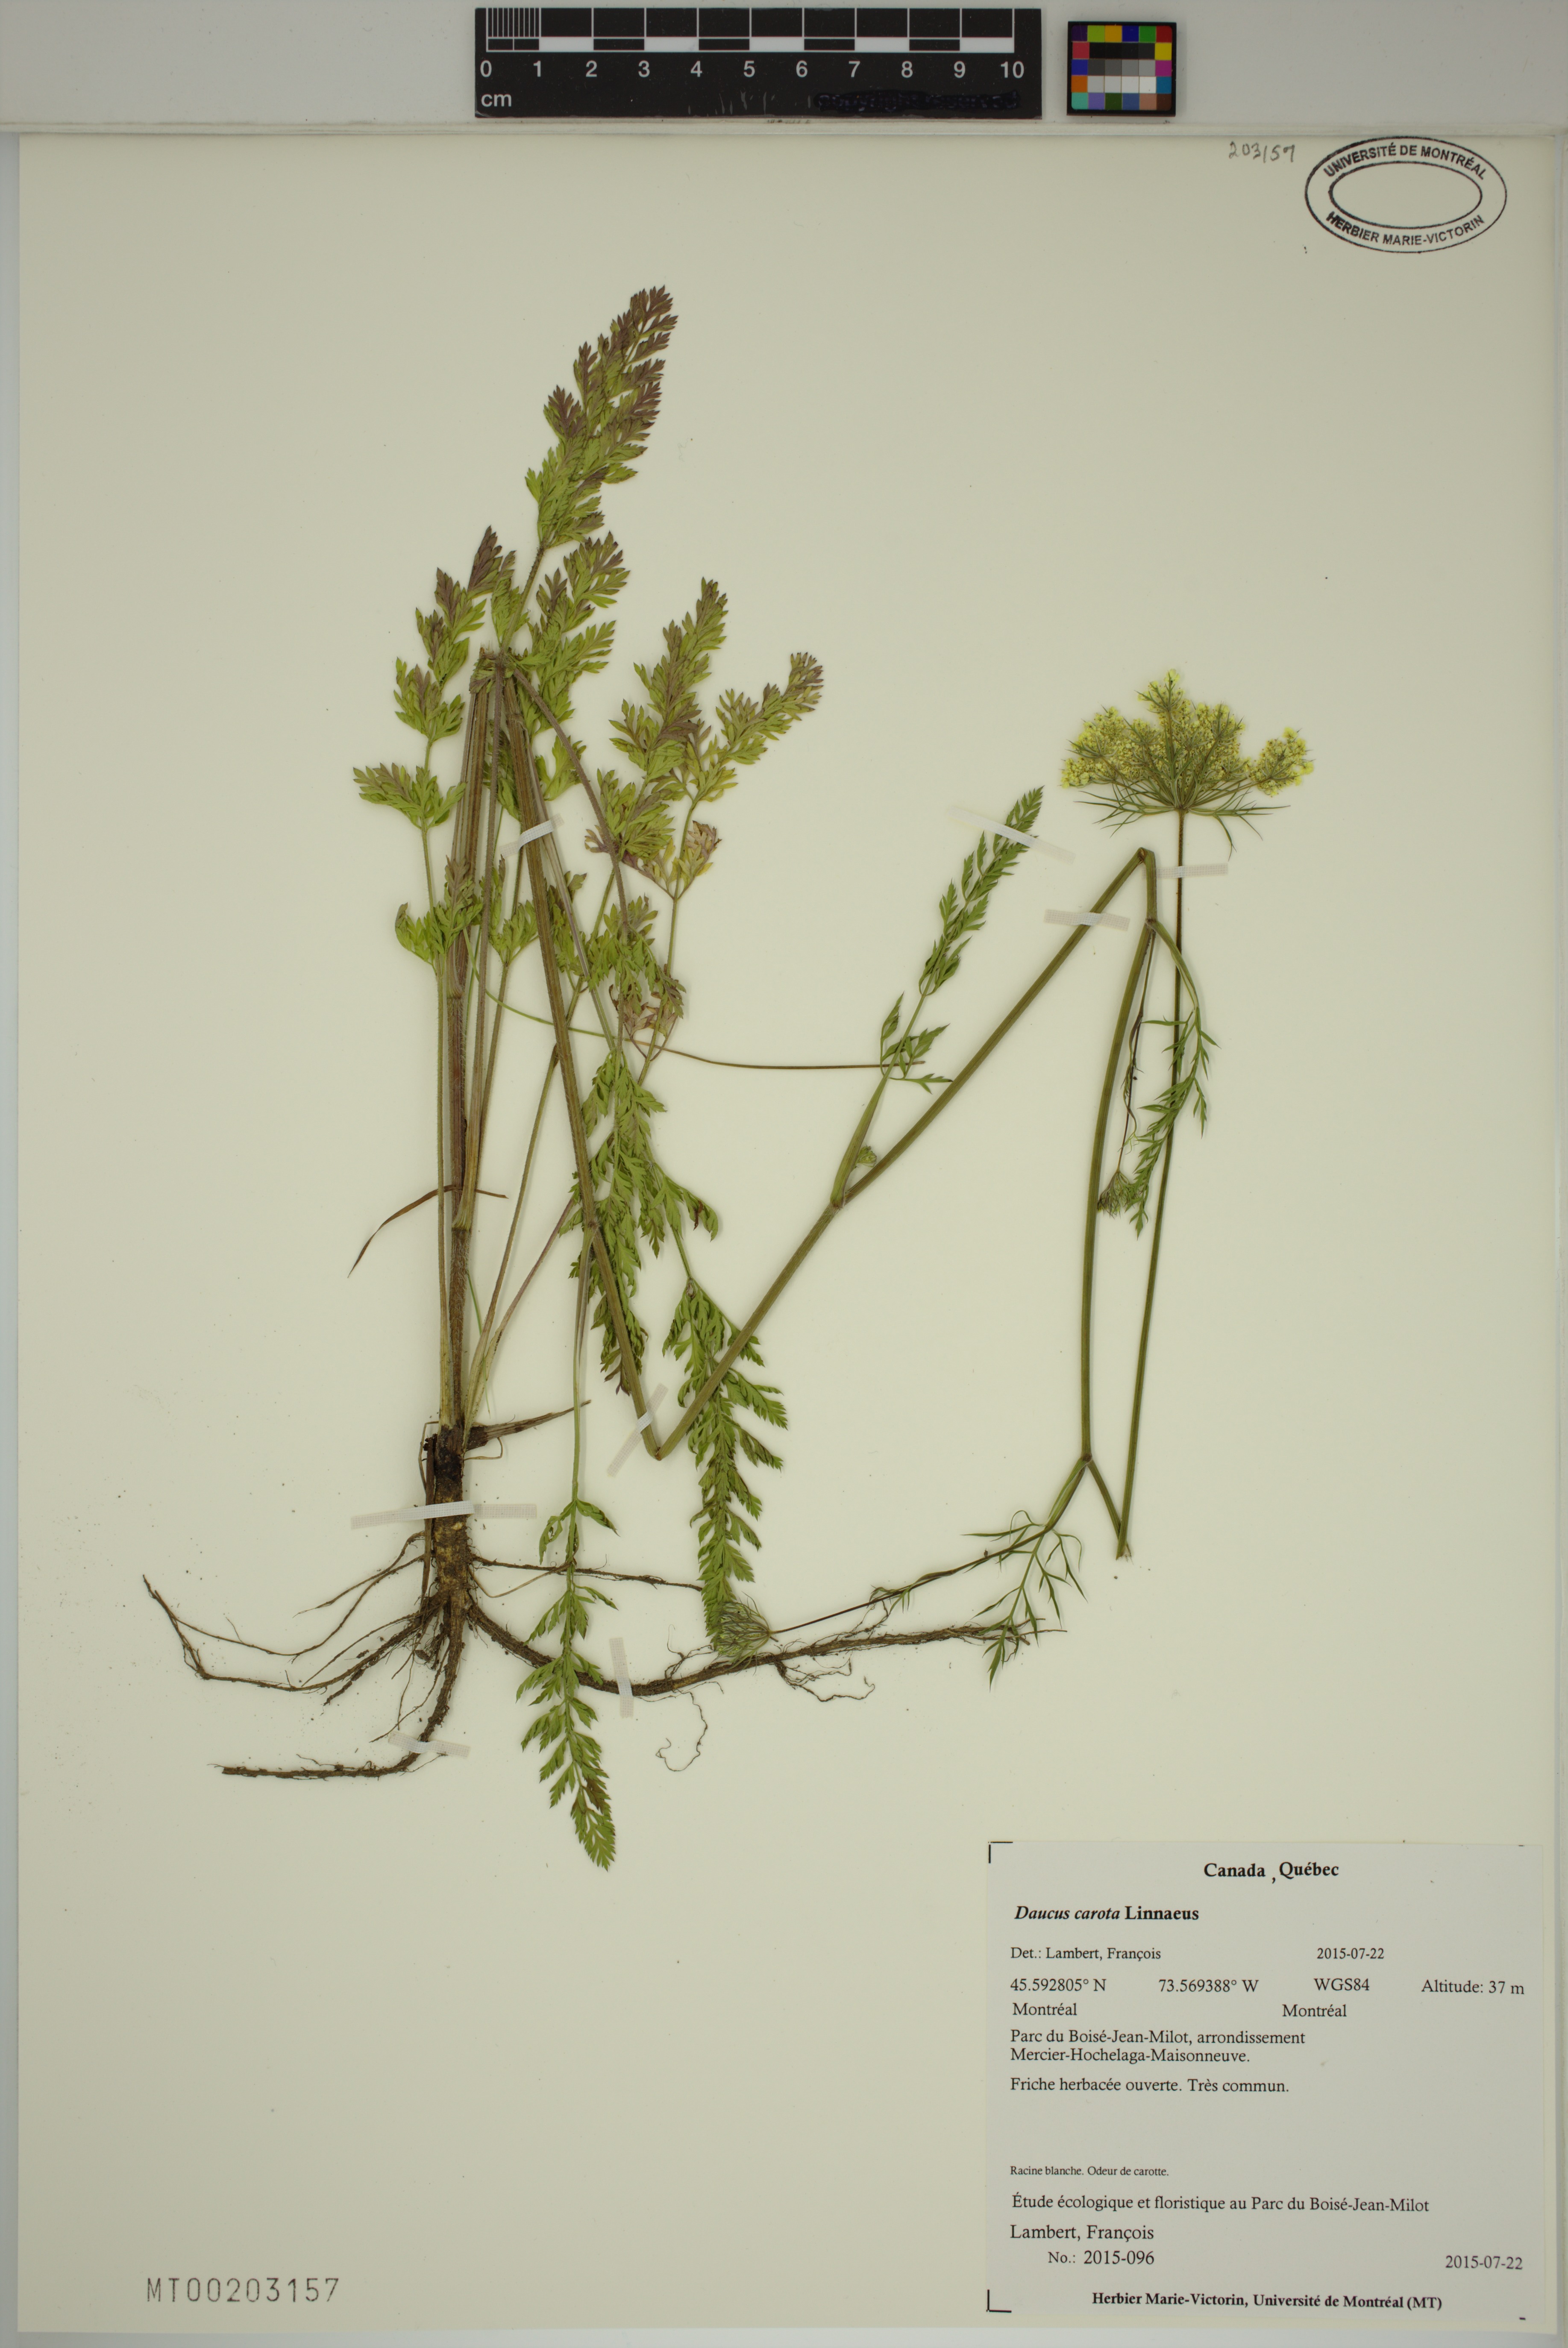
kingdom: Plantae
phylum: Tracheophyta
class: Magnoliopsida
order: Apiales
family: Apiaceae
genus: Daucus
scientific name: Daucus carota
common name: Wild carrot
